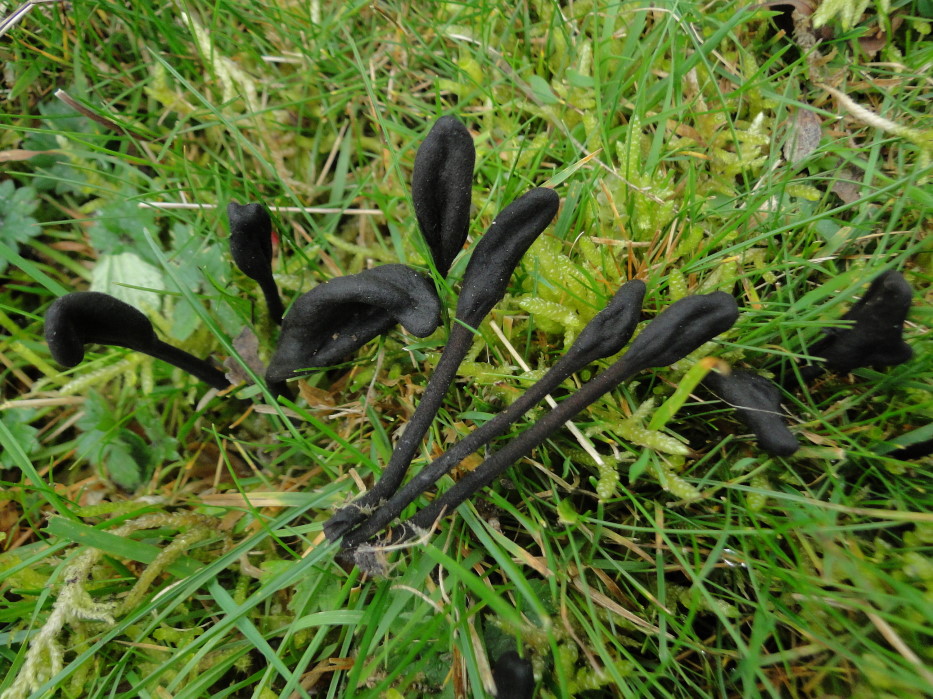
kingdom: Fungi
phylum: Ascomycota
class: Geoglossomycetes
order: Geoglossales
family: Geoglossaceae
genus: Trichoglossum
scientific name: Trichoglossum hirsutum
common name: håret jordtunge
